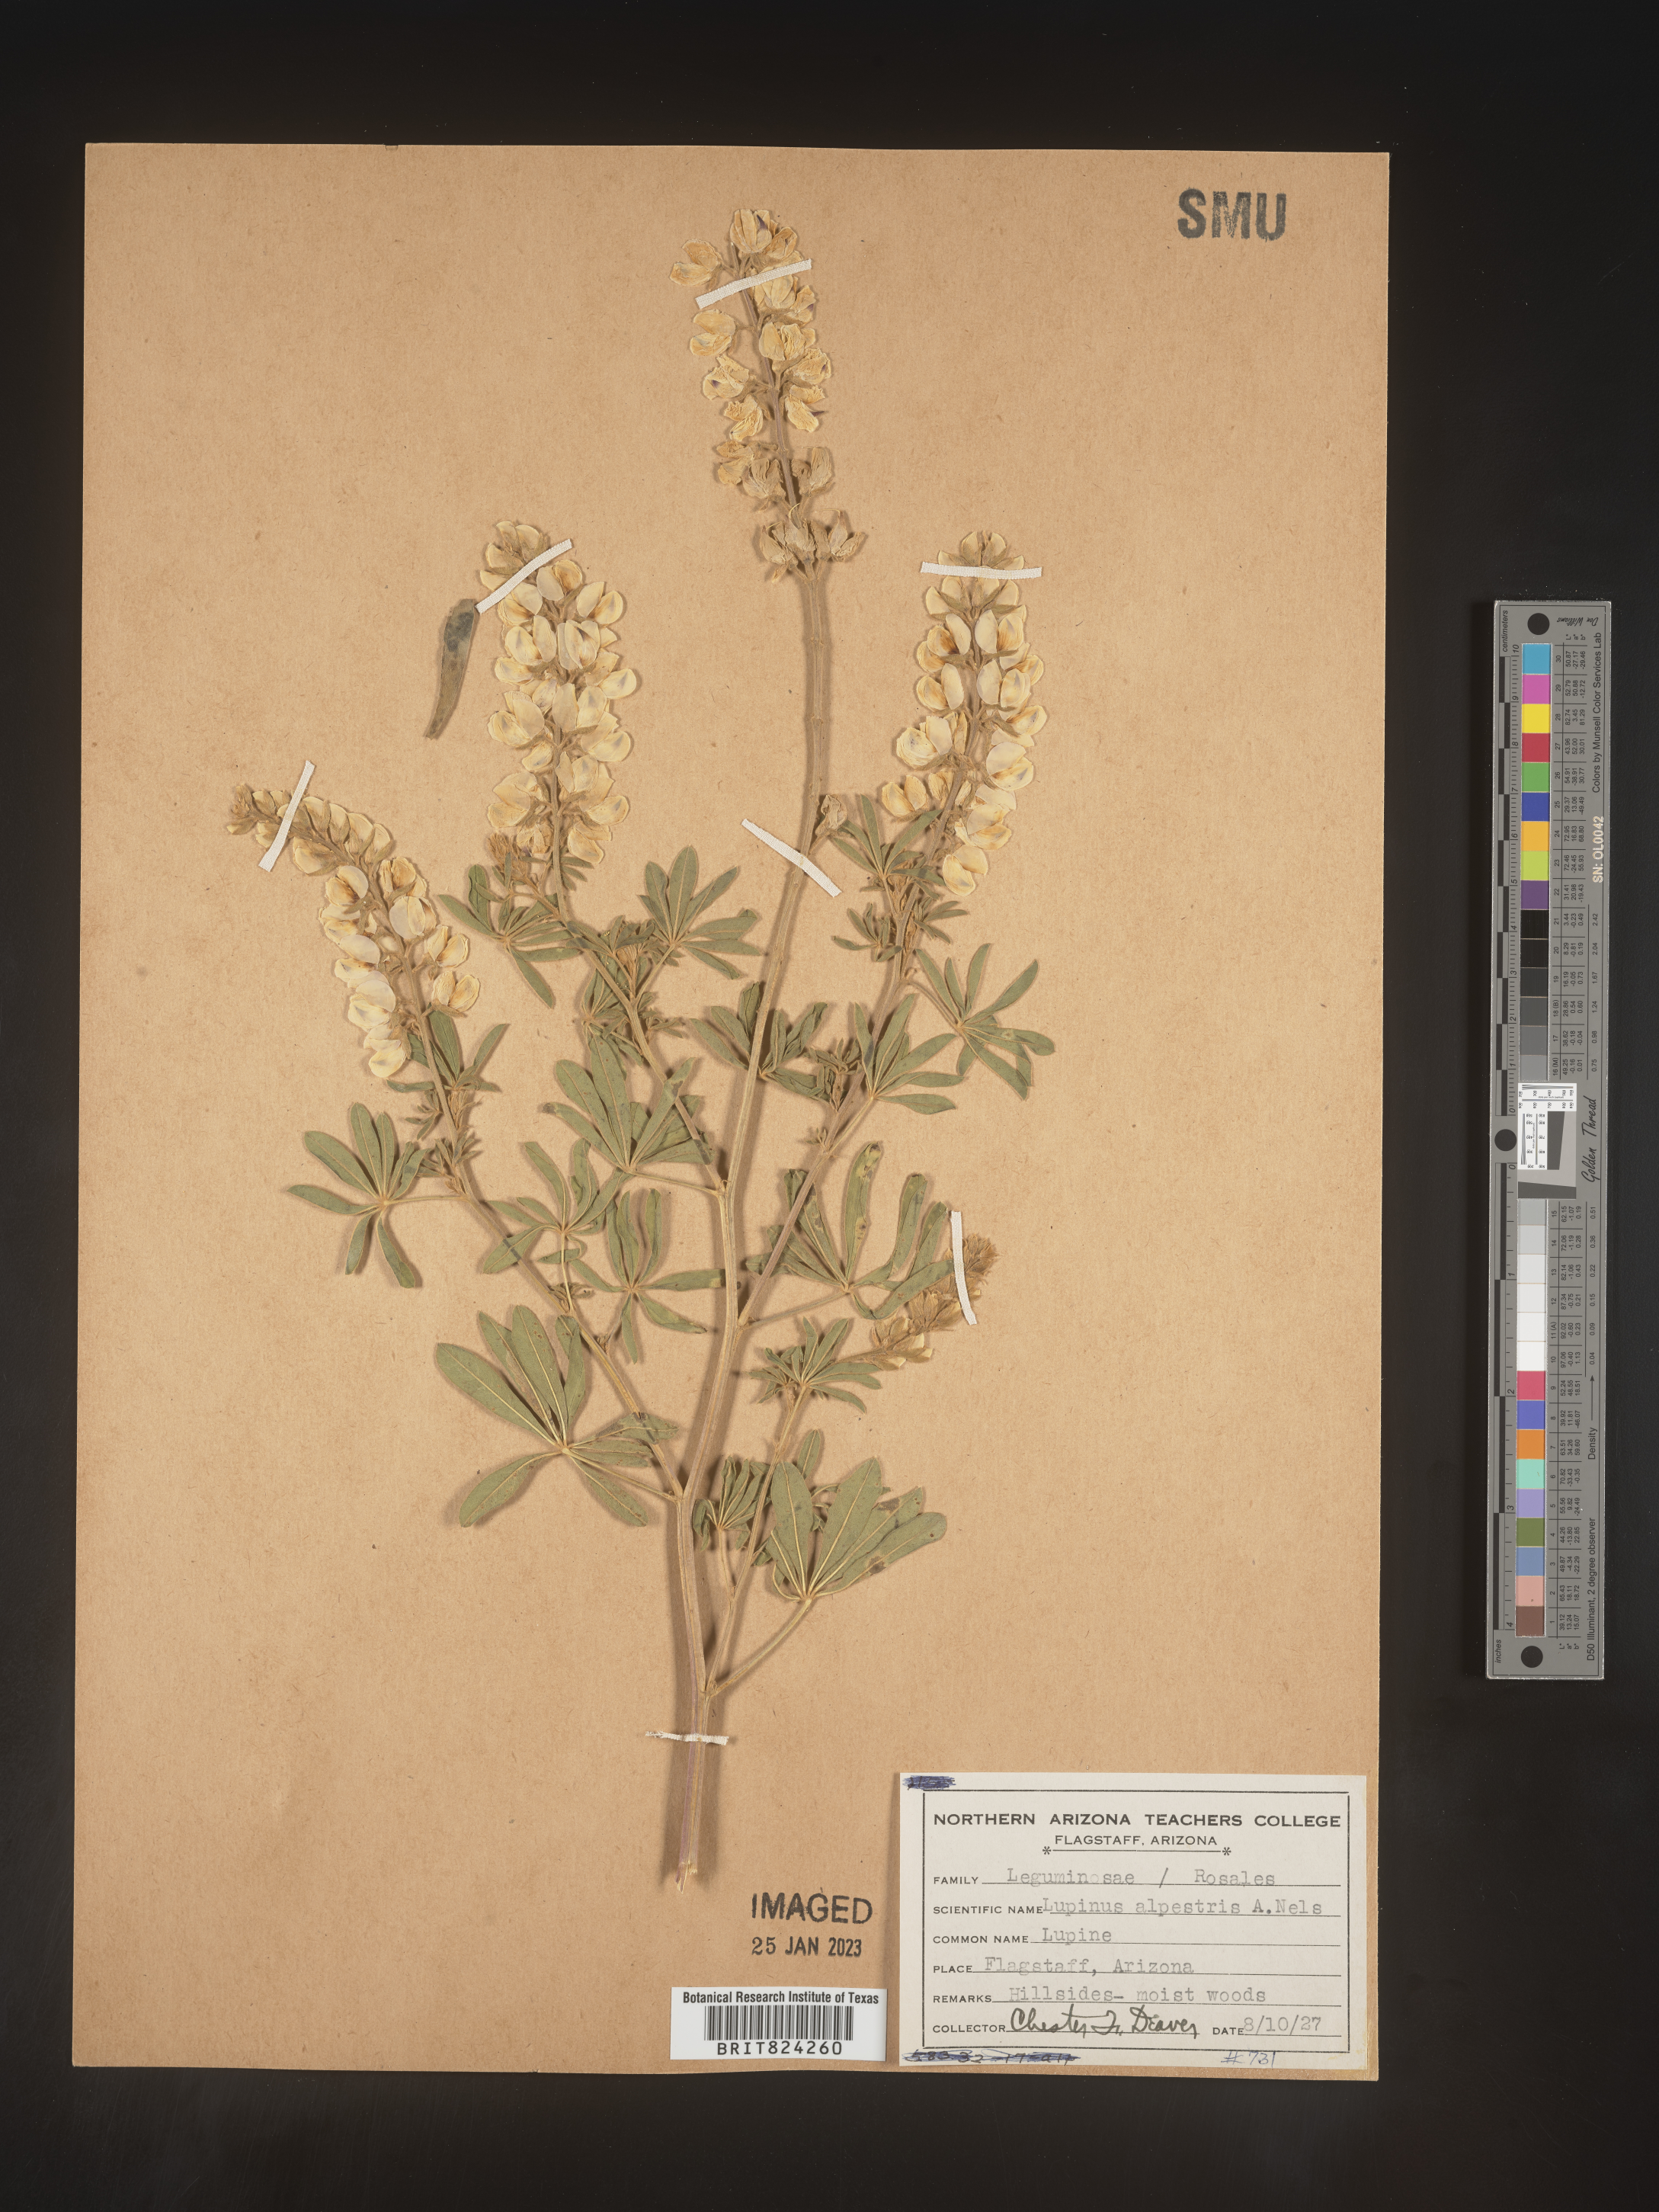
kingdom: Plantae
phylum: Tracheophyta
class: Magnoliopsida
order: Fabales
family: Fabaceae
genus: Lupinus
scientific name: Lupinus
